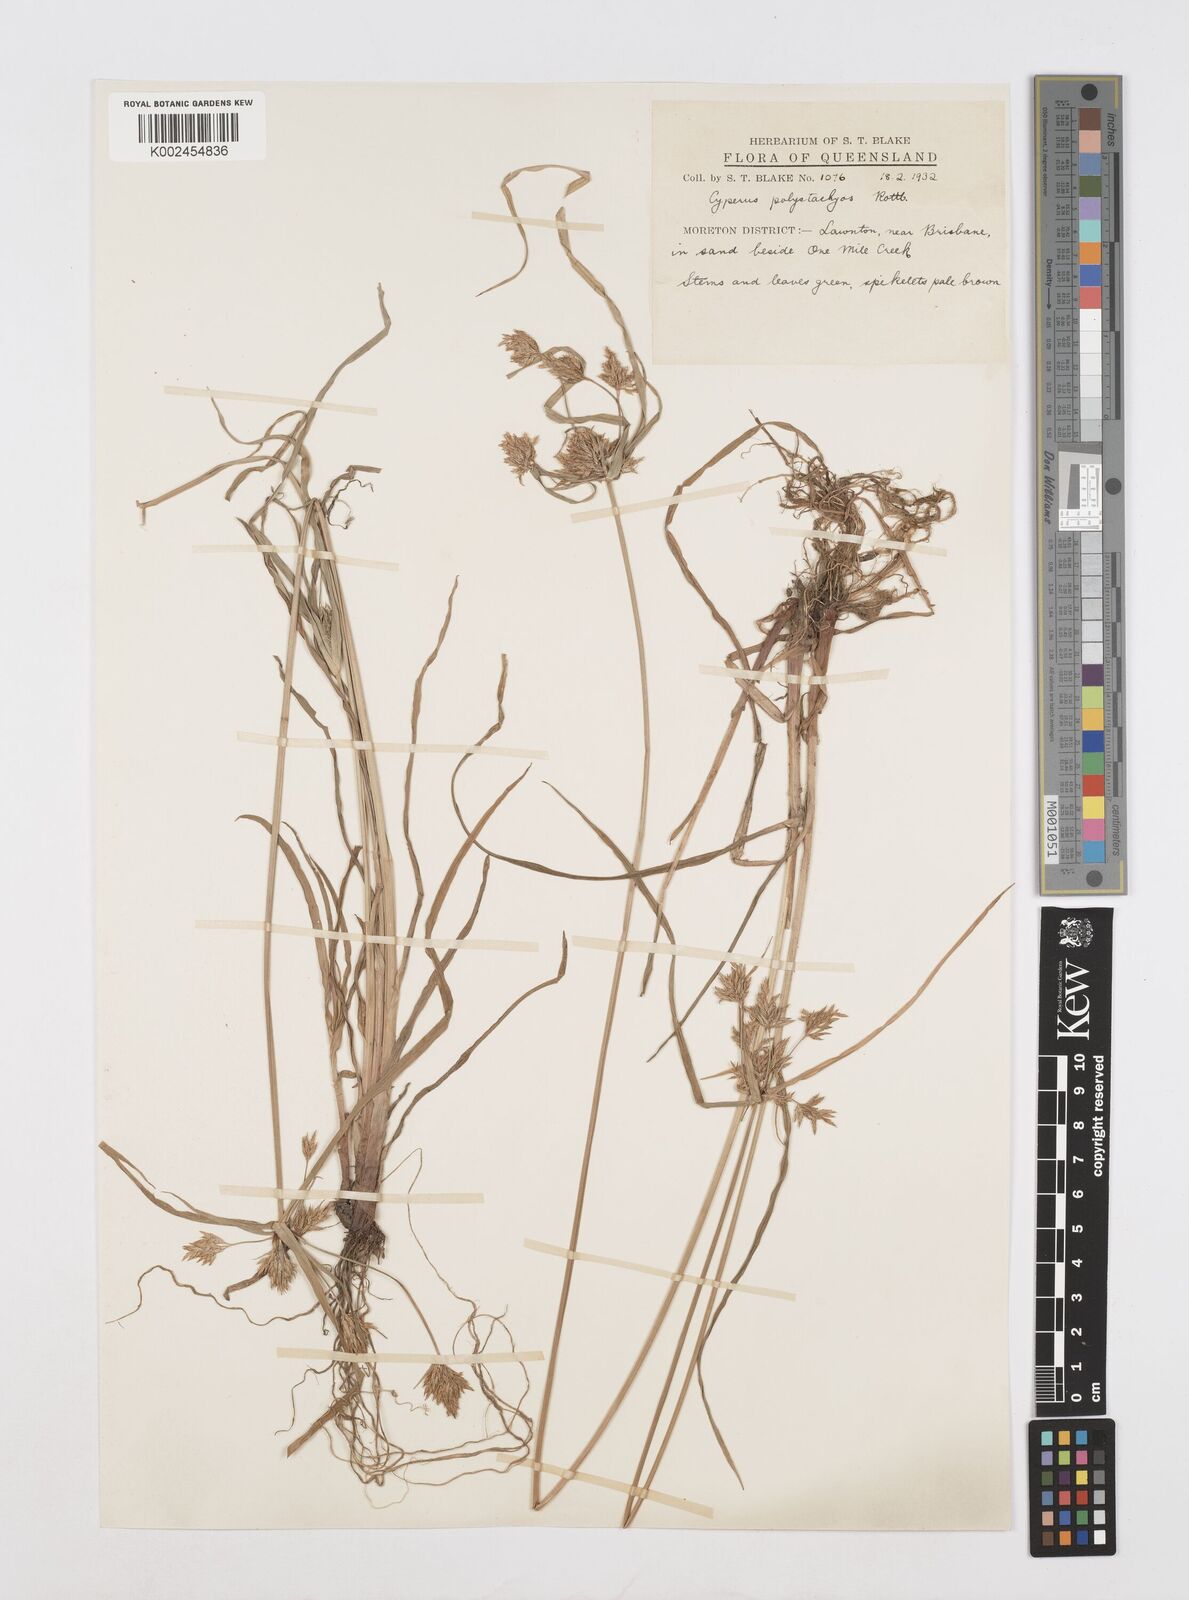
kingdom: Plantae
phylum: Tracheophyta
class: Liliopsida
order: Poales
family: Cyperaceae
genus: Cyperus
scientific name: Cyperus polystachyos
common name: Bunchy flat sedge
